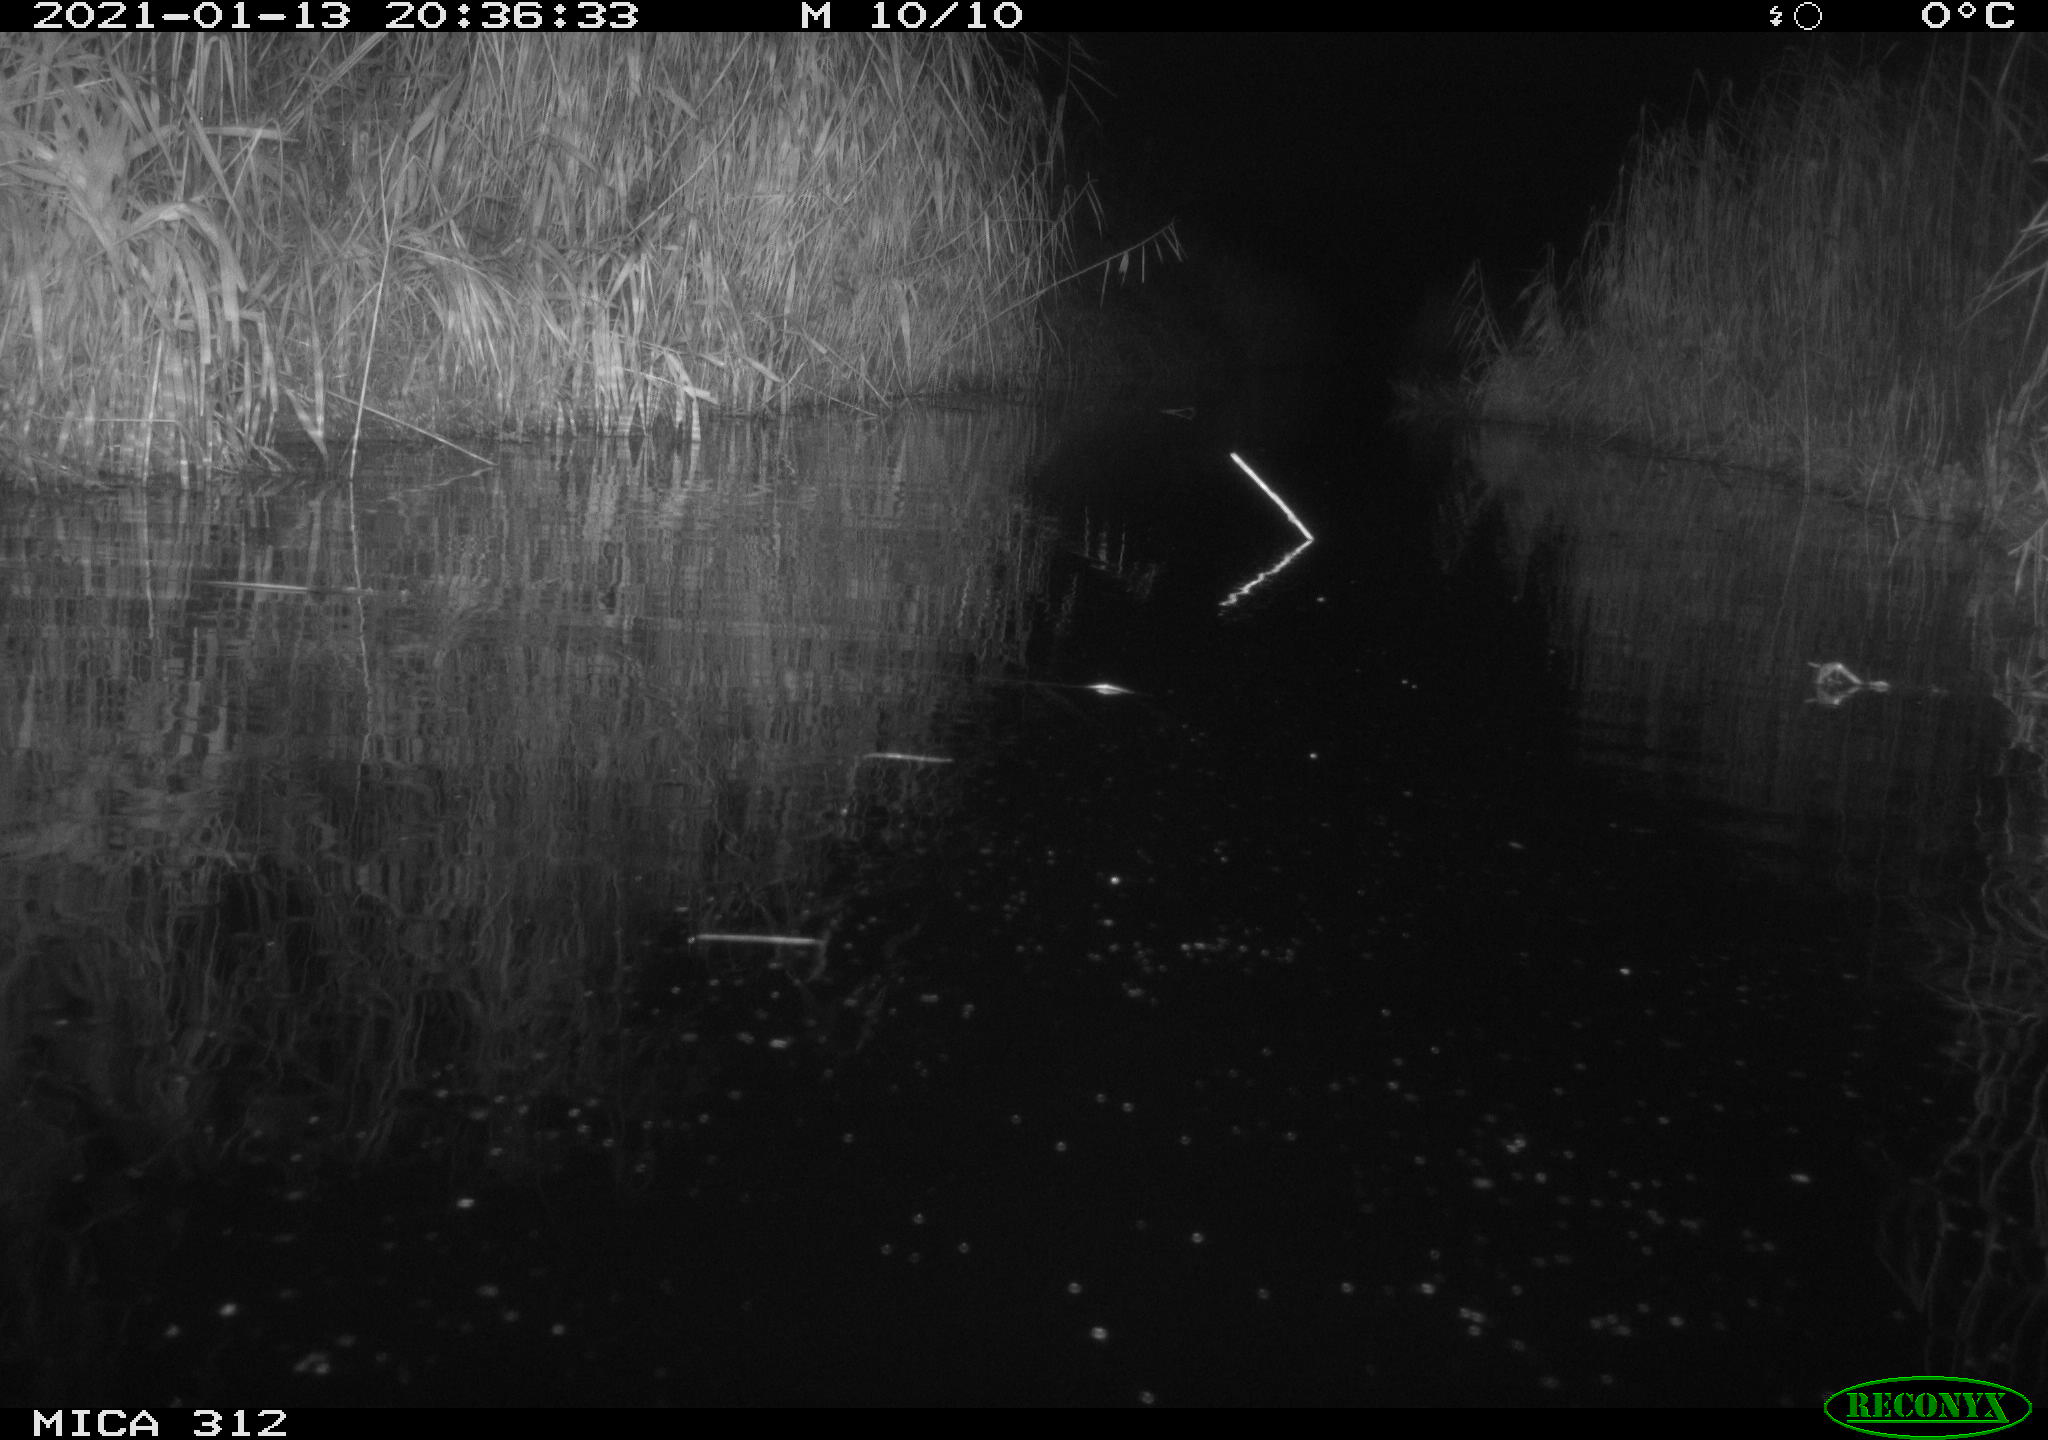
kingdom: Animalia
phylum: Chordata
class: Mammalia
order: Rodentia
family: Muridae
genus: Rattus
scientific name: Rattus norvegicus
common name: Brown rat
